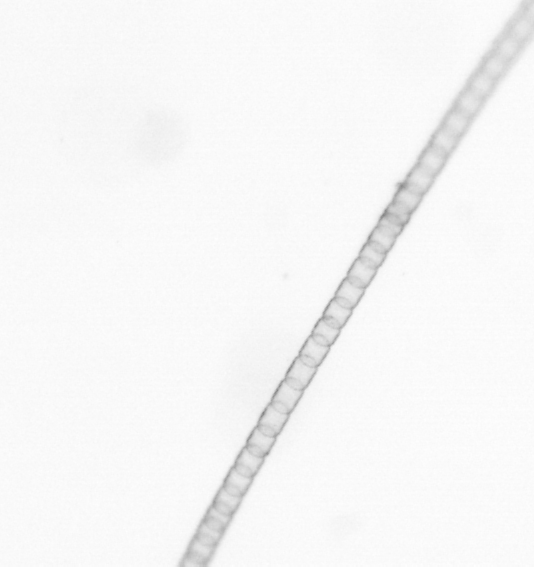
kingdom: Chromista
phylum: Ochrophyta
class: Bacillariophyceae
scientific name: Bacillariophyceae
